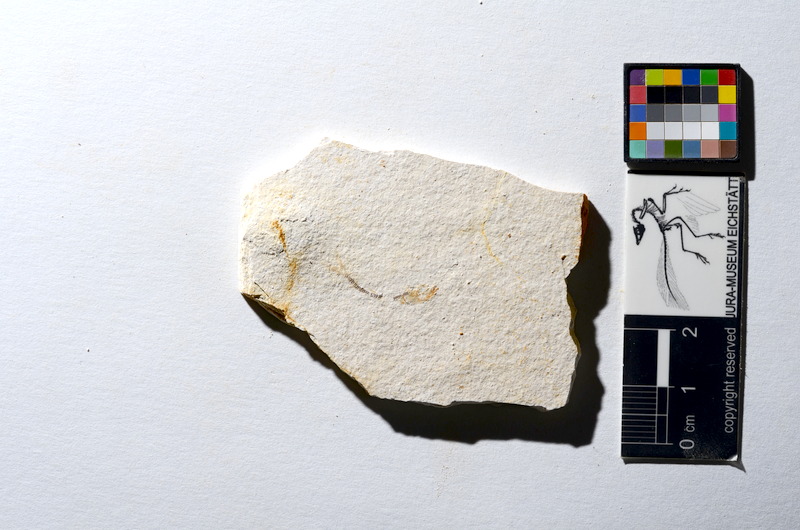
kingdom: Animalia
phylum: Chordata
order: Salmoniformes
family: Orthogonikleithridae
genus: Orthogonikleithrus
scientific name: Orthogonikleithrus hoelli
